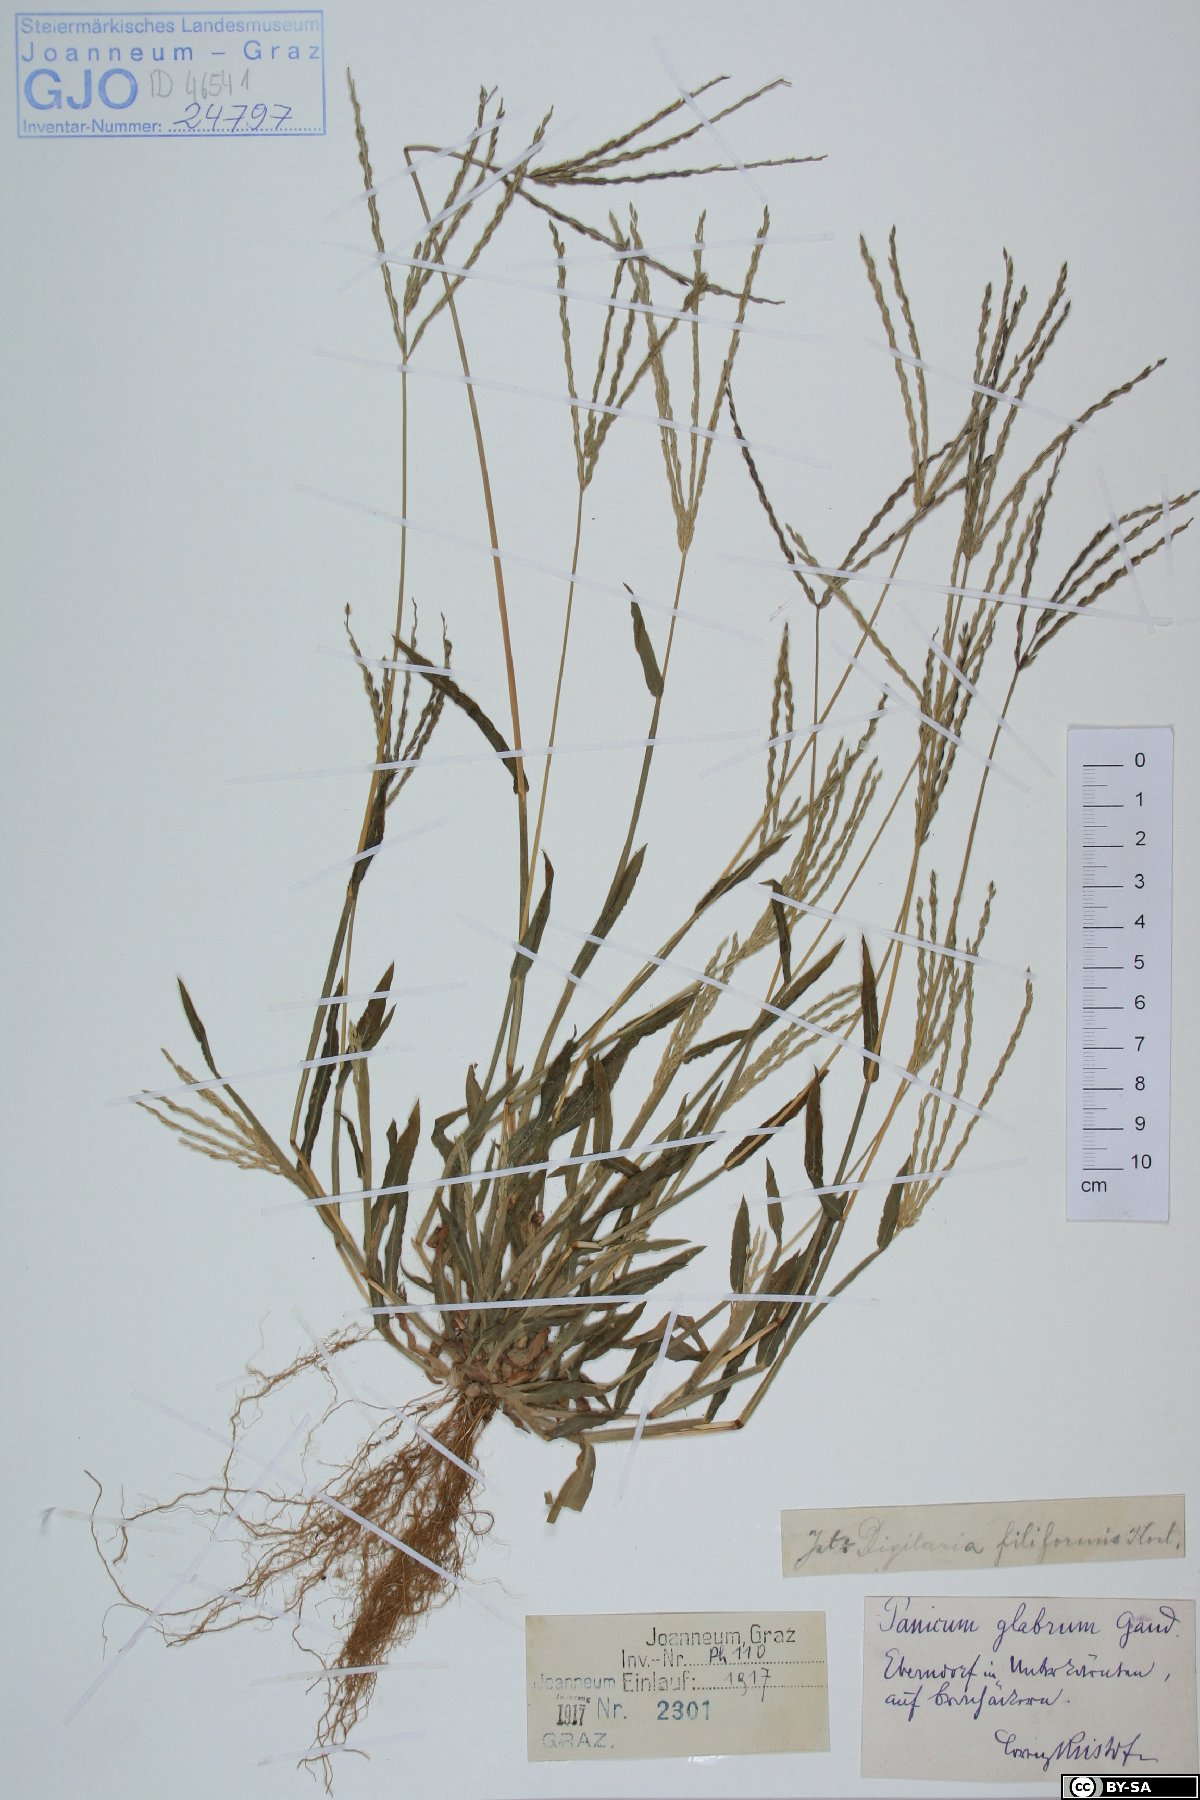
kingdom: Plantae
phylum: Tracheophyta
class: Liliopsida
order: Poales
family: Poaceae
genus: Digitaria
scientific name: Digitaria ischaemum
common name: Smooth crabgrass
